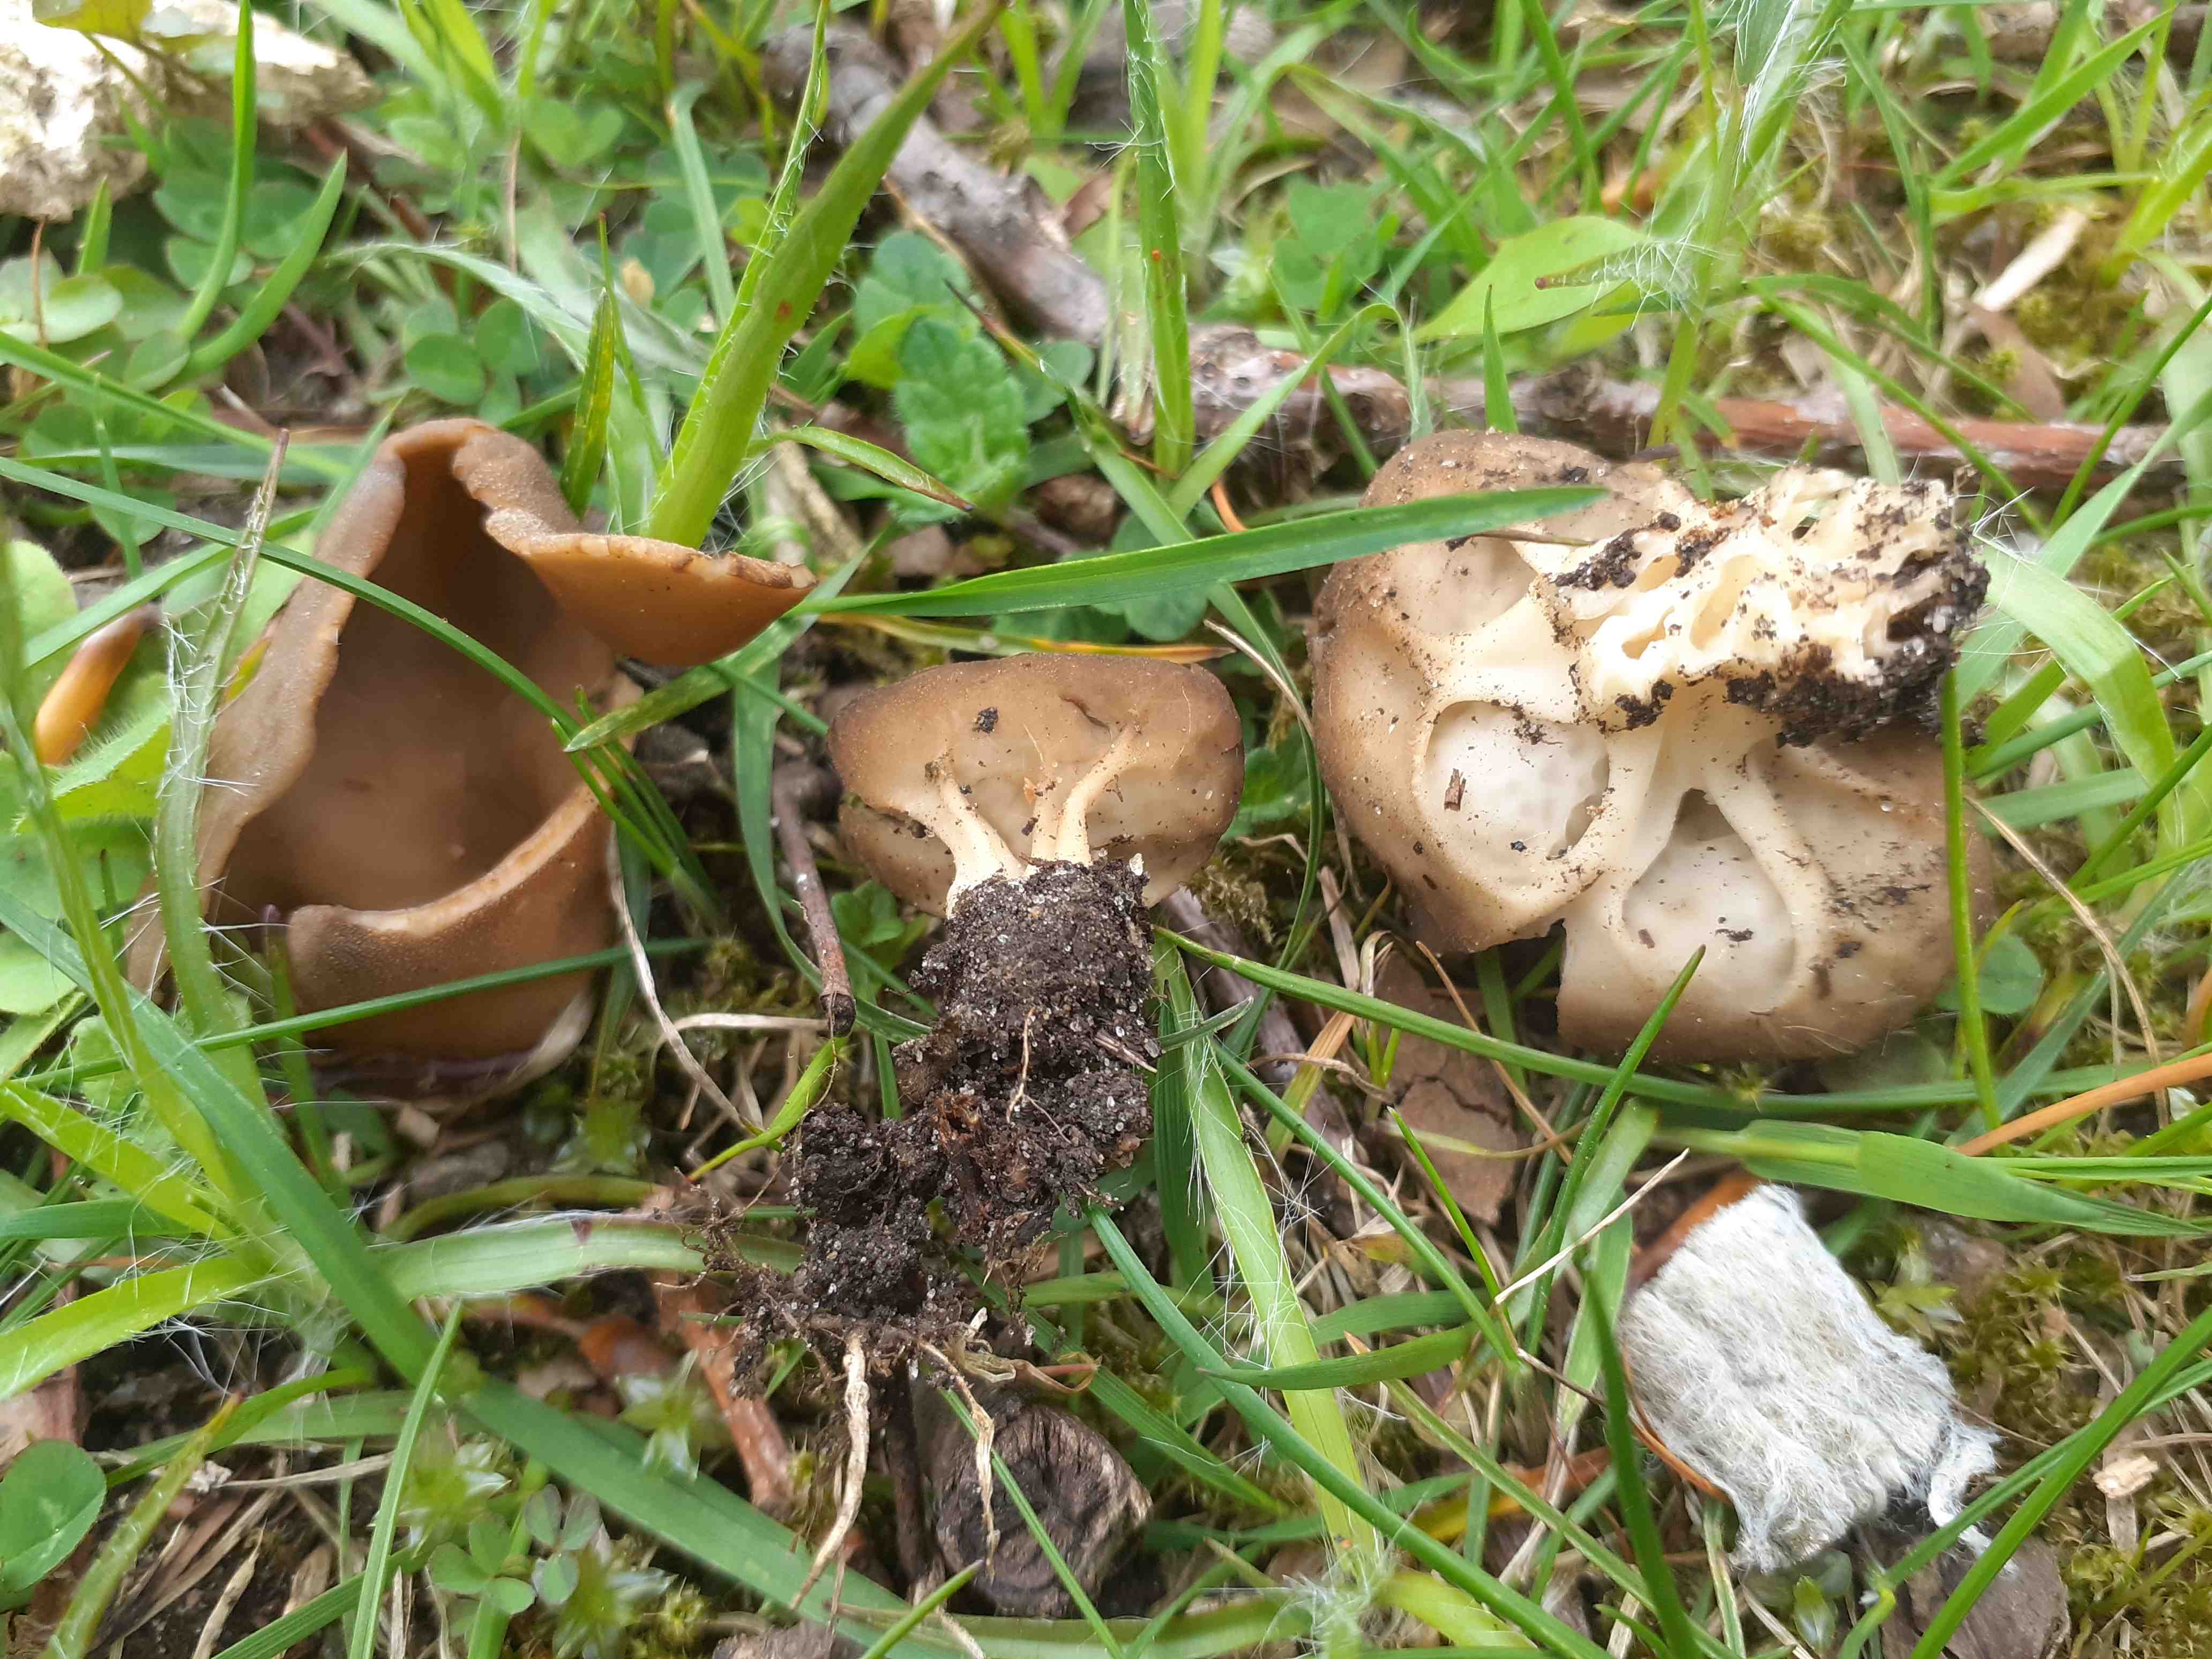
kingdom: Fungi
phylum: Ascomycota
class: Pezizomycetes
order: Pezizales
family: Helvellaceae
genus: Helvella
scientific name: Helvella acetabulum
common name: pokal-foldhat
